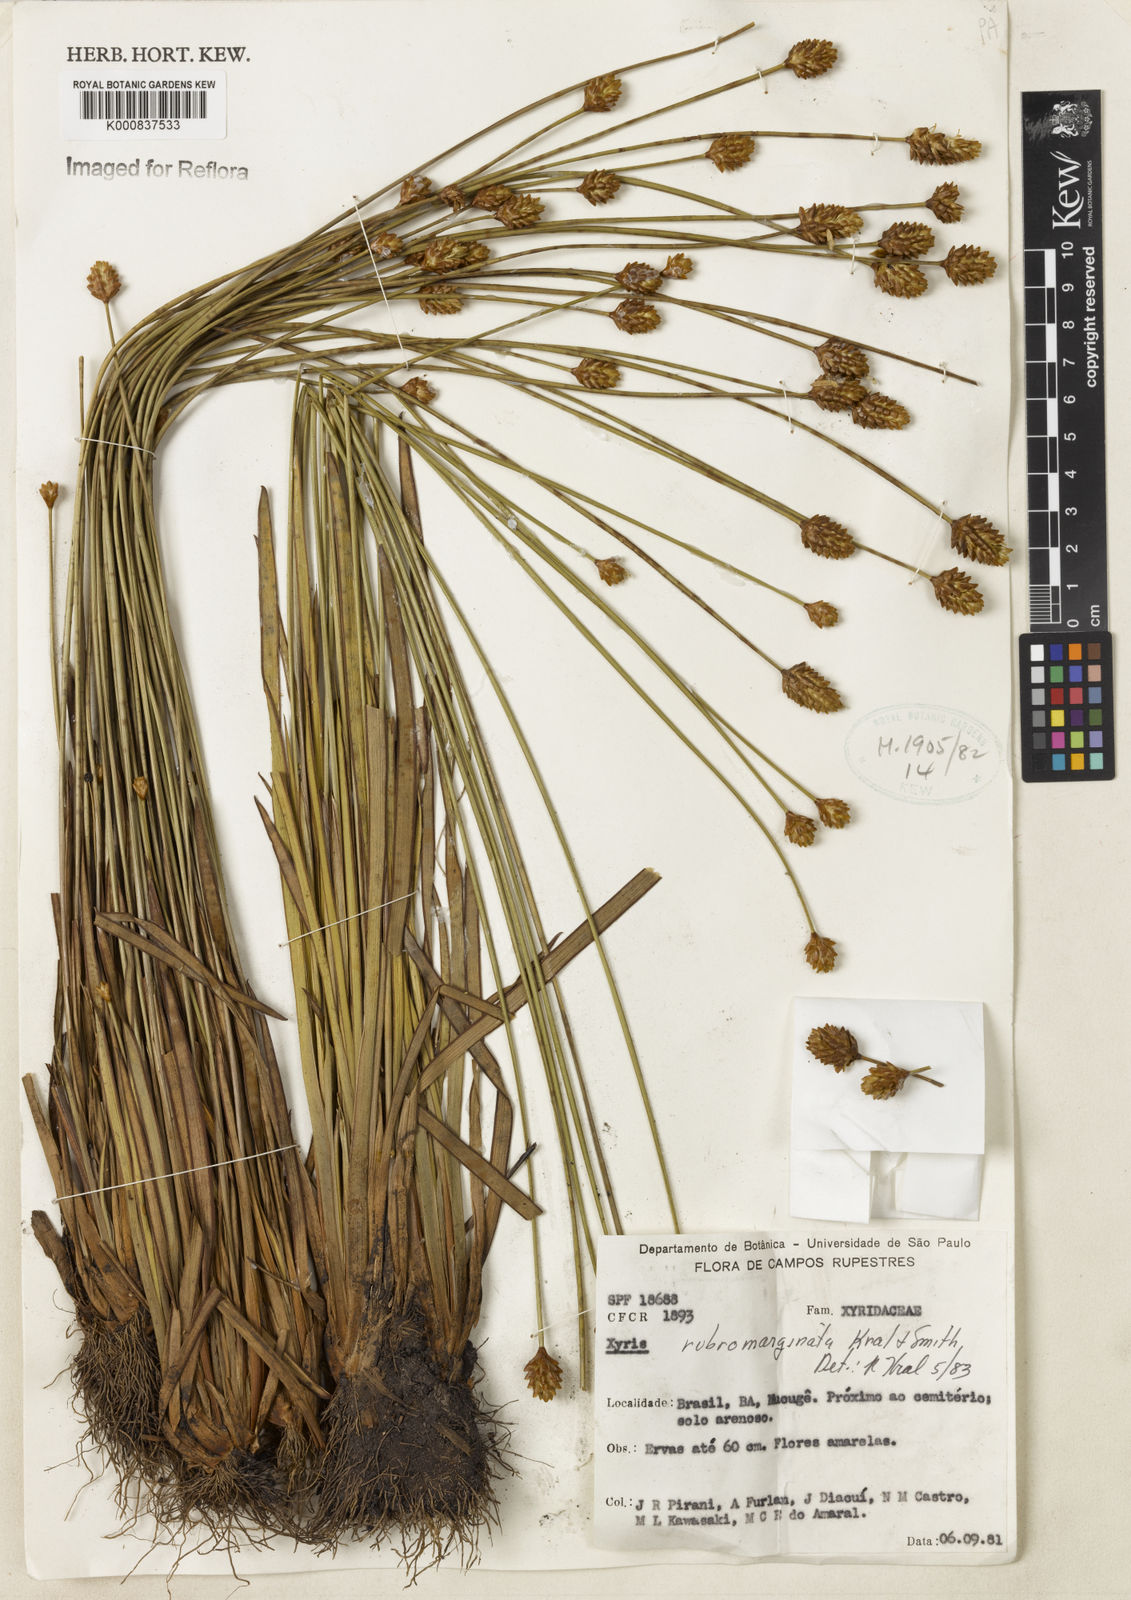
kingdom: Plantae
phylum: Tracheophyta
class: Liliopsida
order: Poales
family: Xyridaceae
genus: Xyris
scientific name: Xyris rubromarginata
